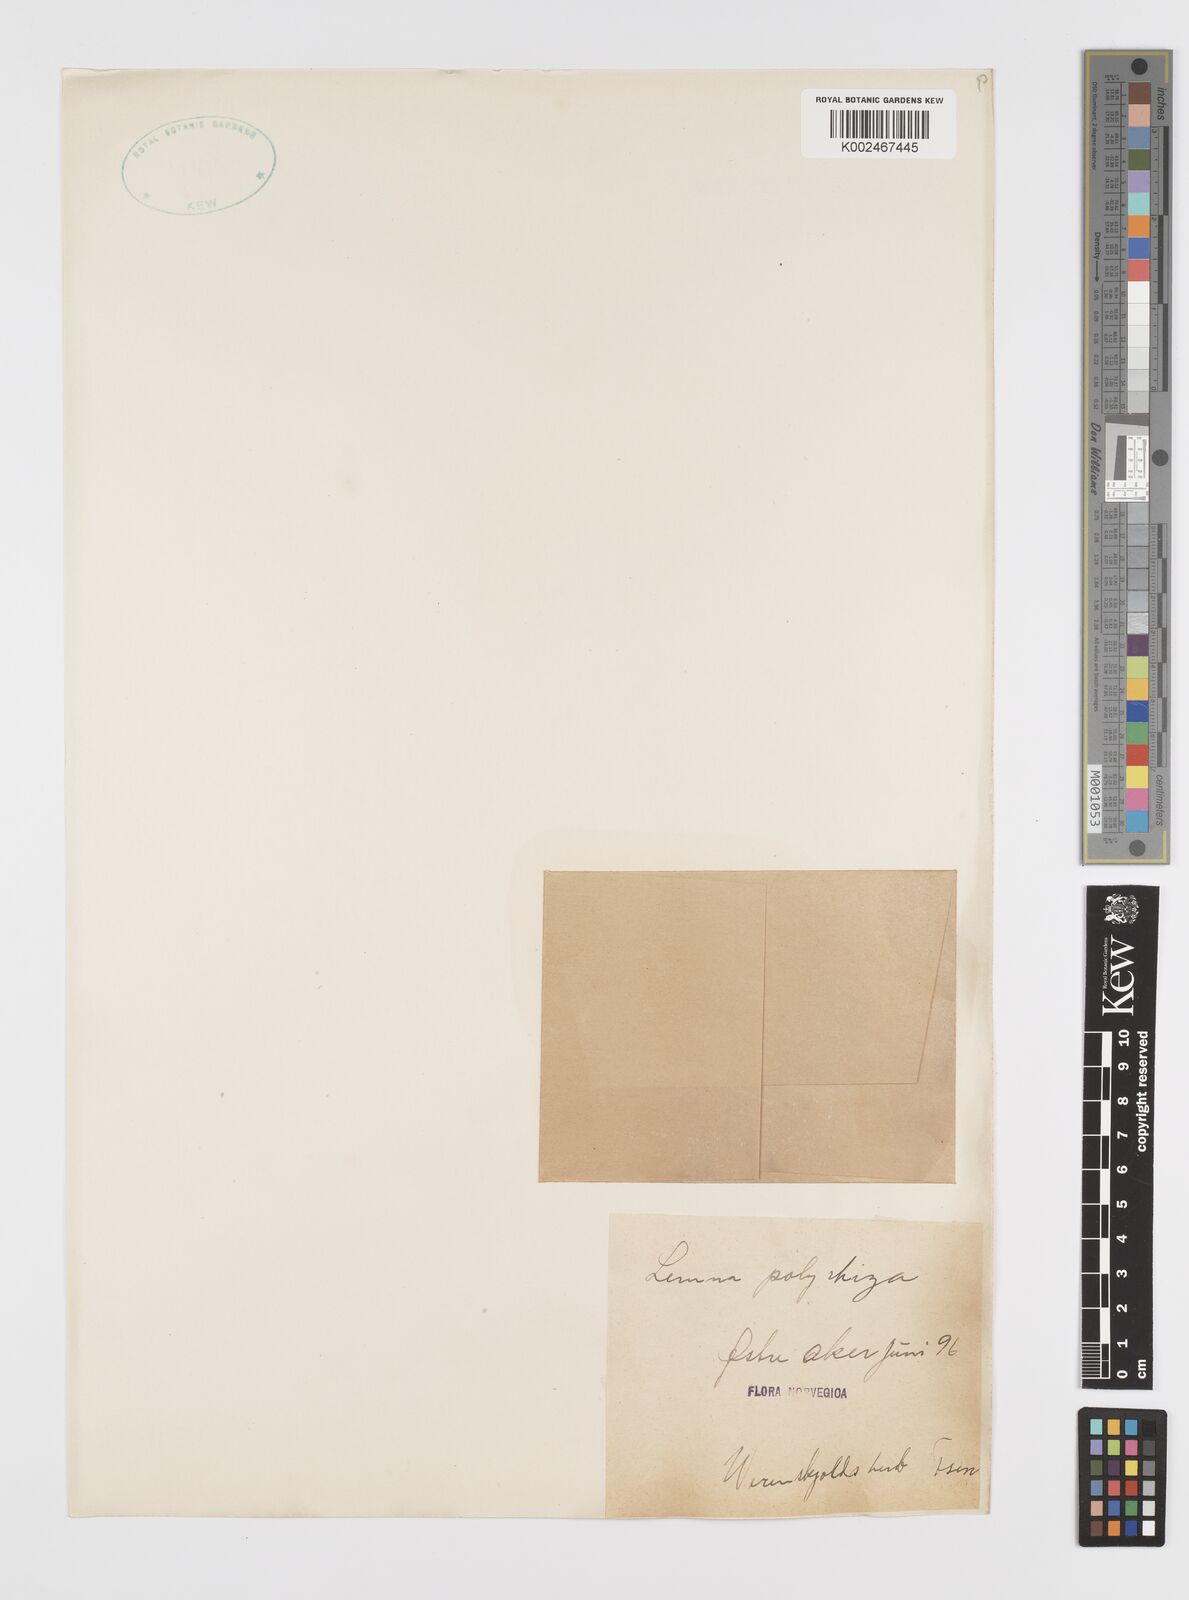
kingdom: Plantae
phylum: Tracheophyta
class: Liliopsida
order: Alismatales
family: Araceae
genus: Spirodela
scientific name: Spirodela polyrhiza
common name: Great duckweed
